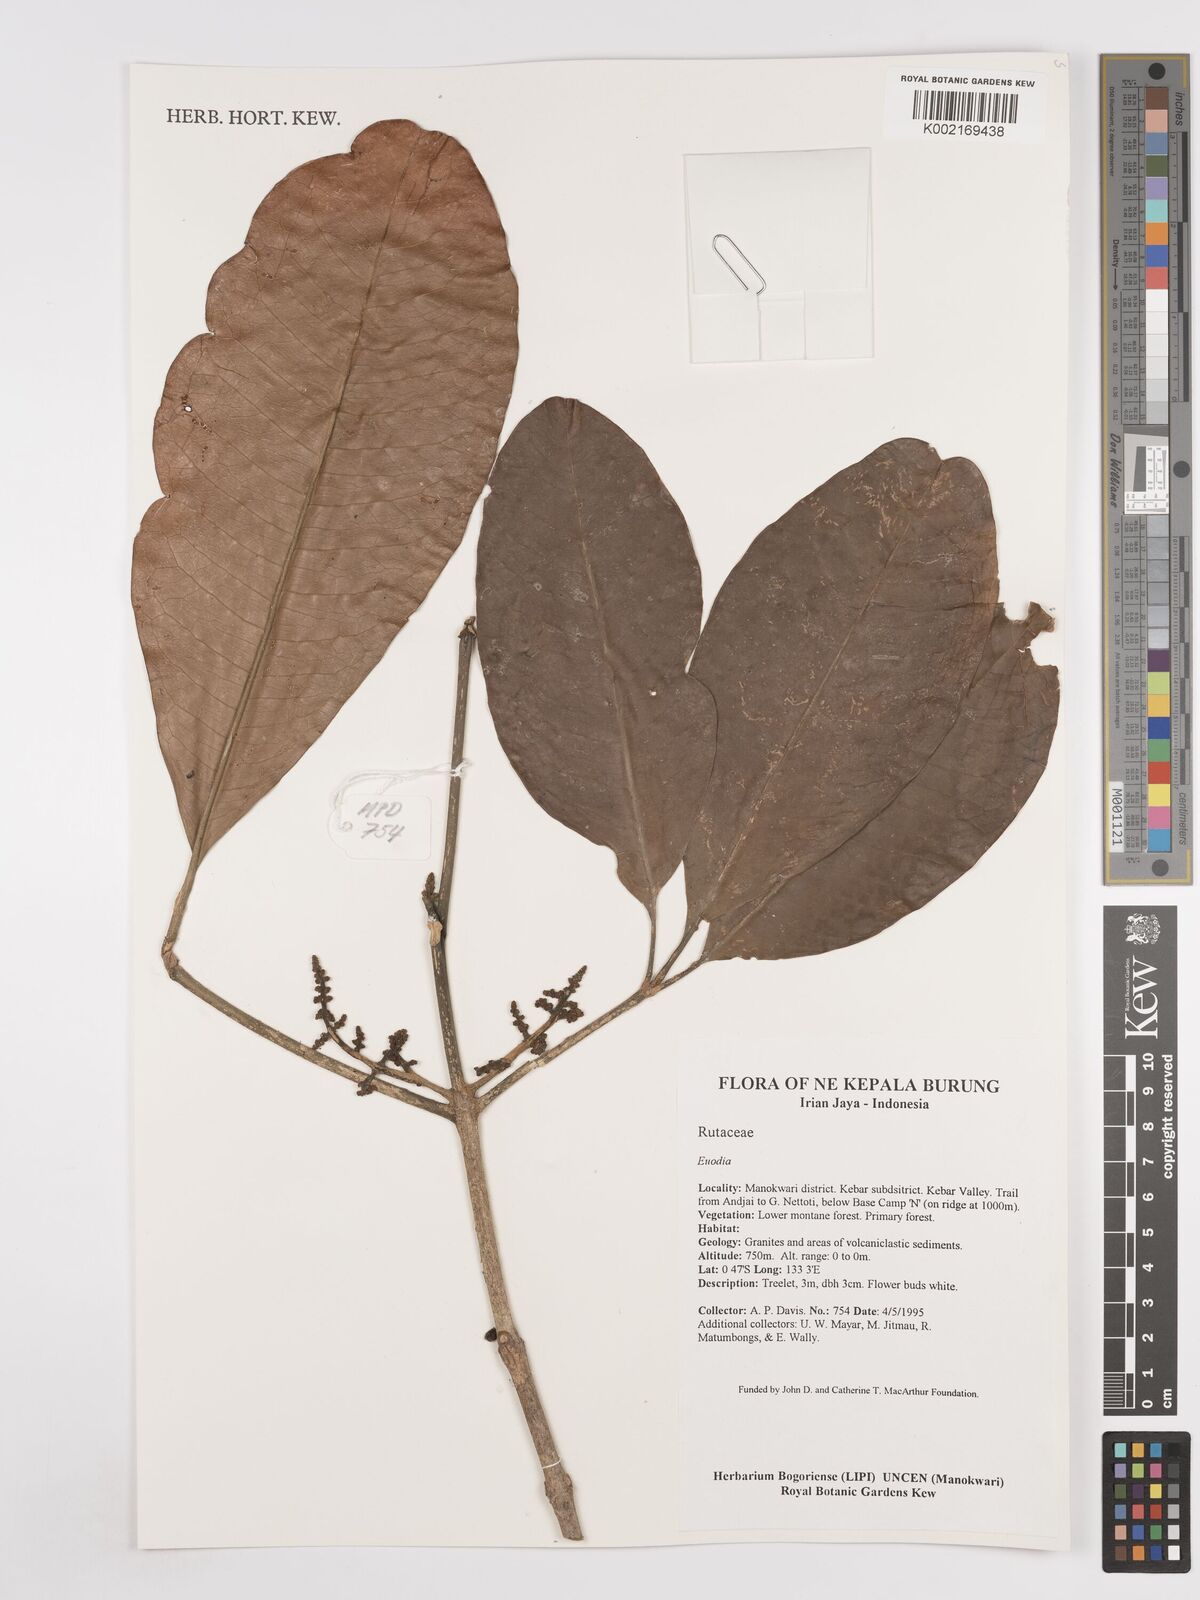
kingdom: Plantae
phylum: Tracheophyta
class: Magnoliopsida
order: Sapindales
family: Rutaceae
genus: Euodia
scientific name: Euodia
